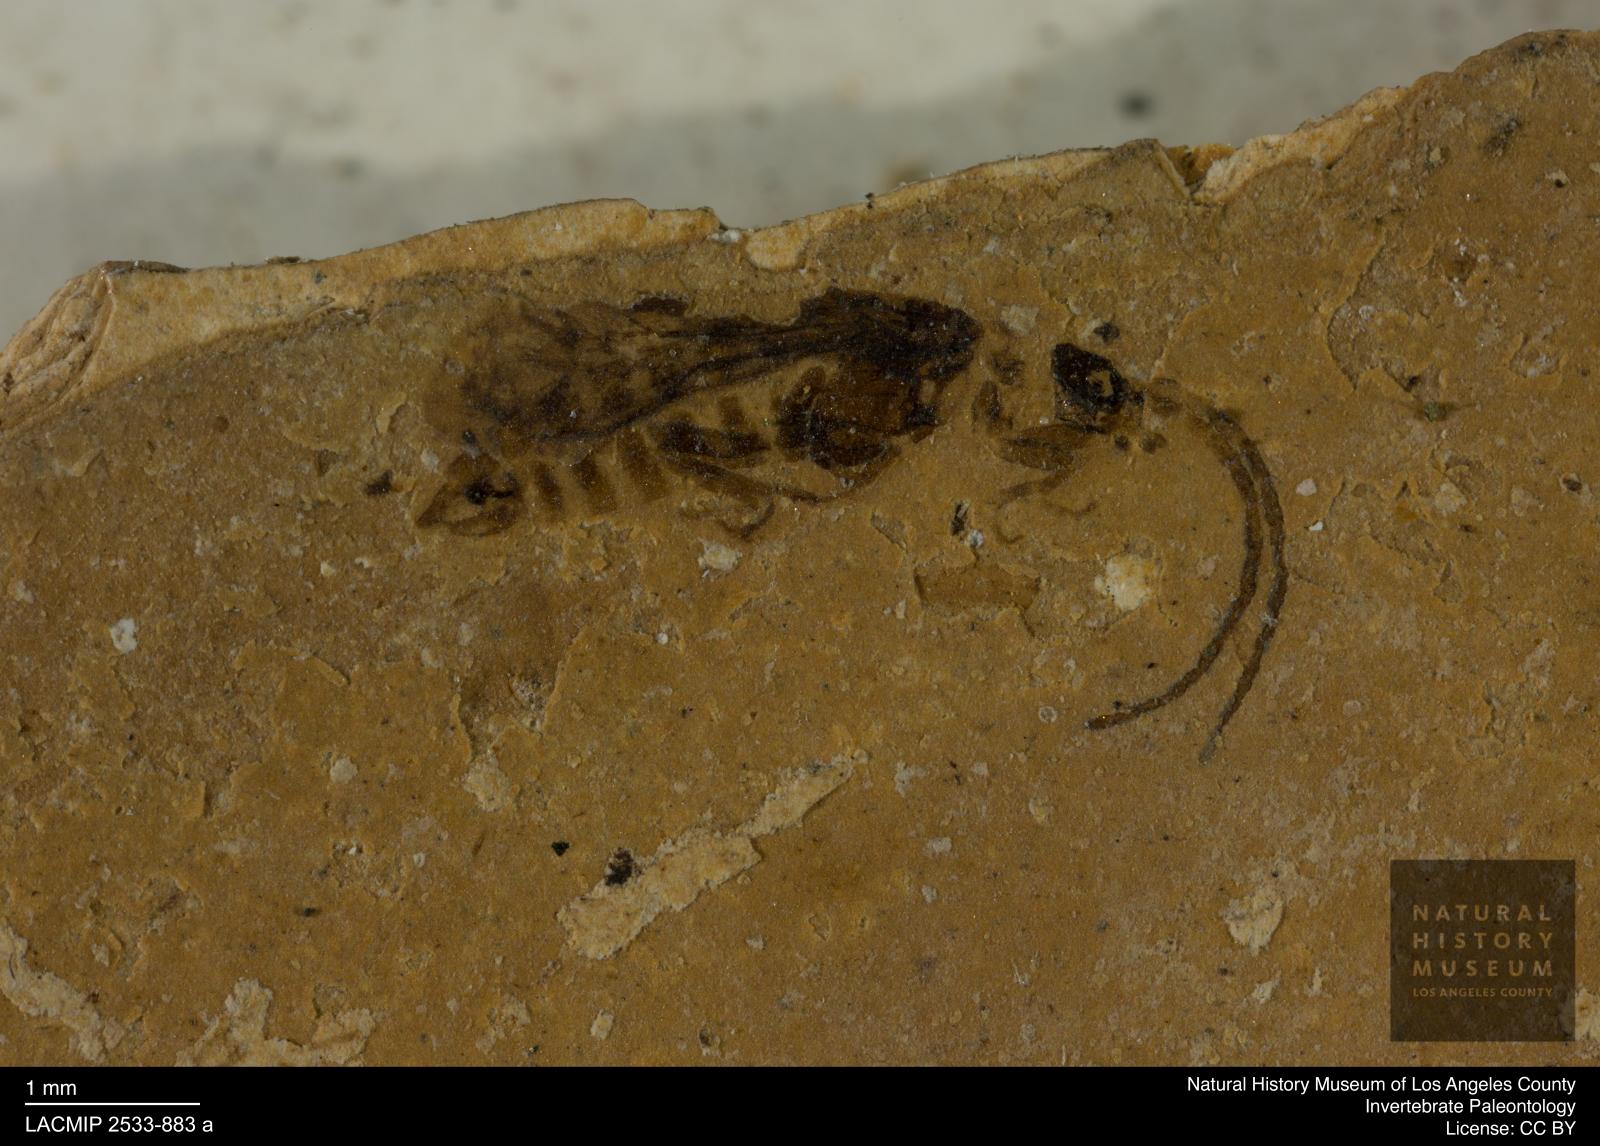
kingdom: Animalia
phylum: Arthropoda
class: Insecta
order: Trichoptera
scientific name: Trichoptera
